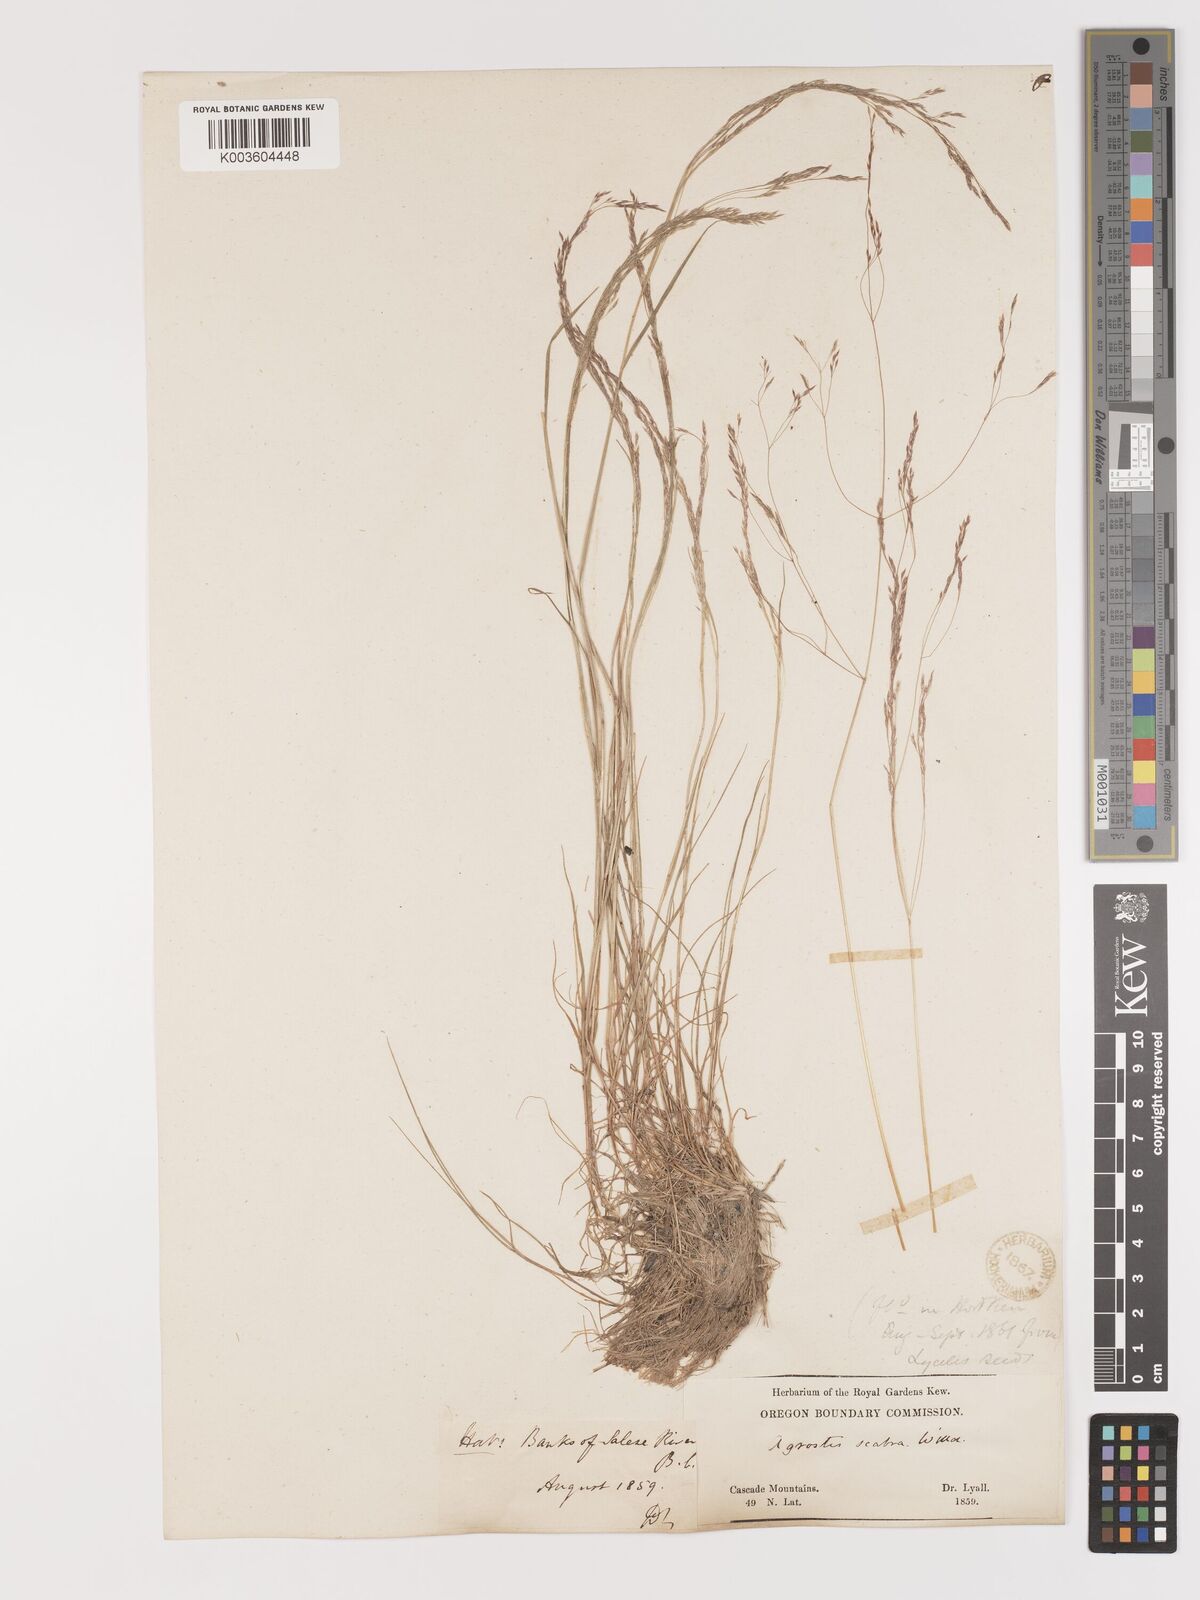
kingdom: Plantae
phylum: Tracheophyta
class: Liliopsida
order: Poales
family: Poaceae
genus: Agrostis
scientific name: Agrostis hyemalis
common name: Small bent
